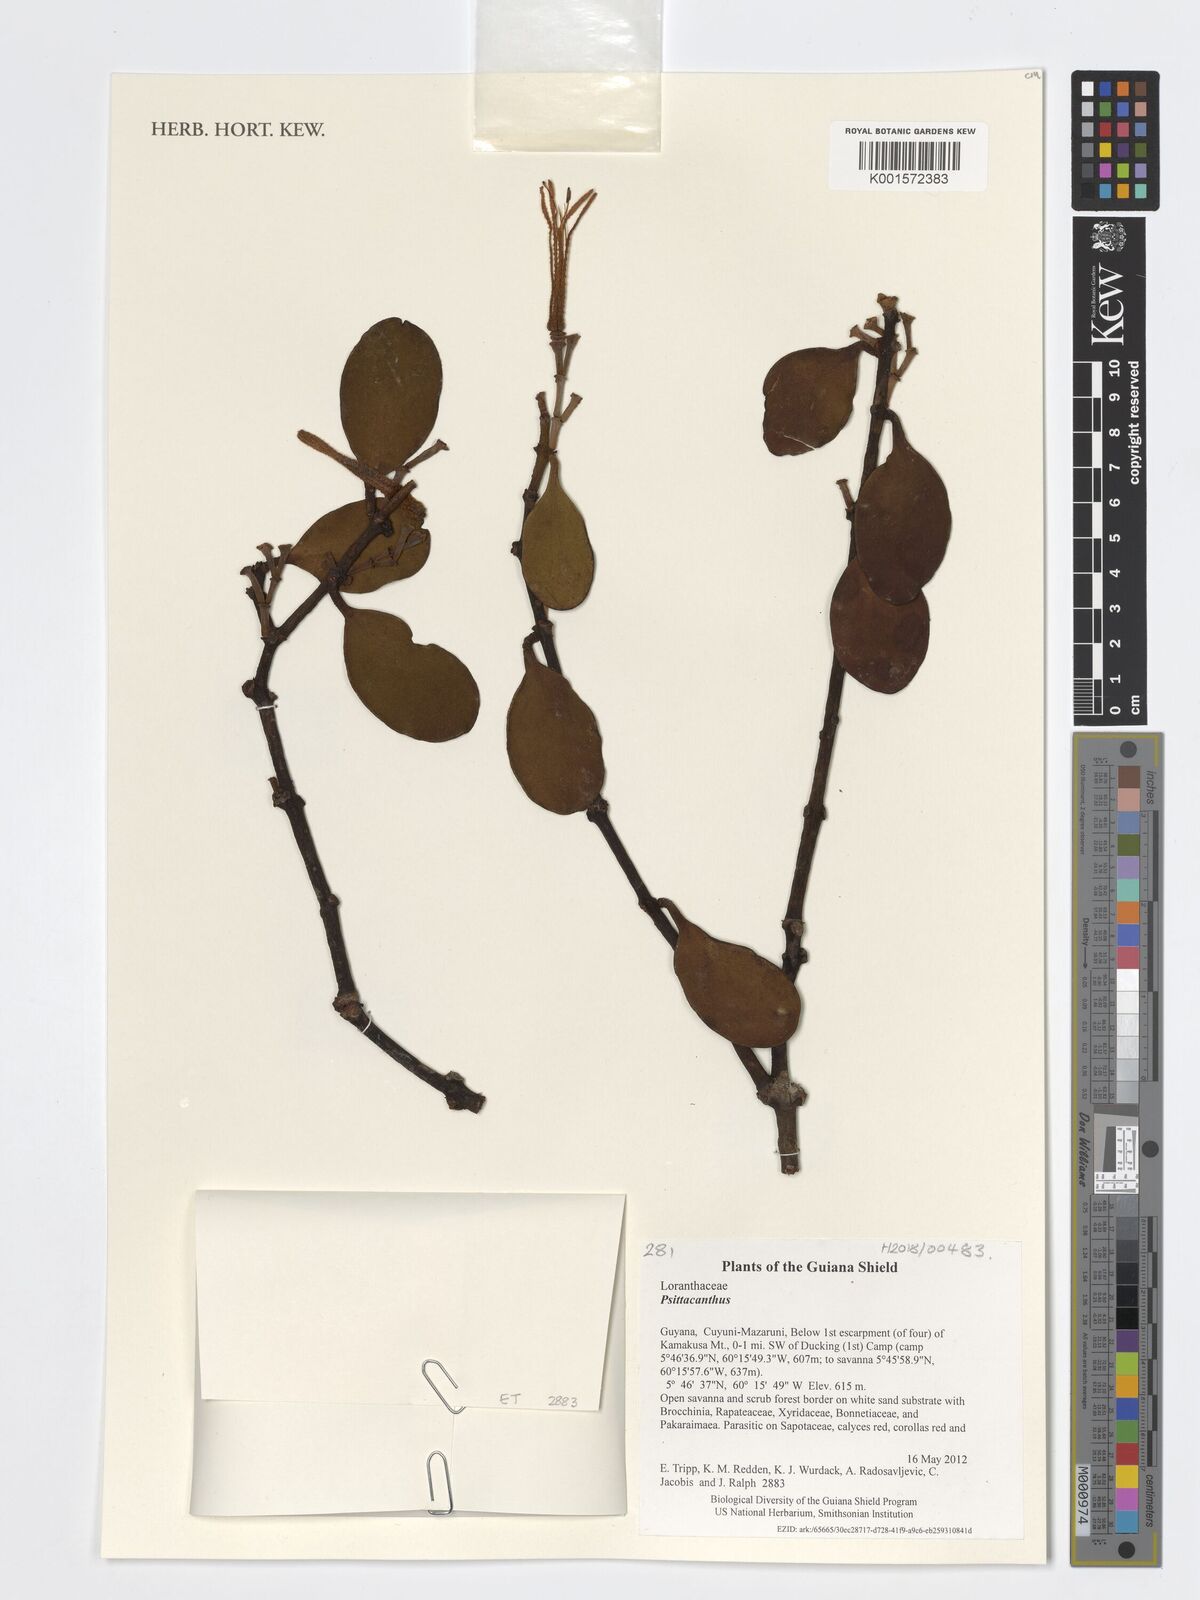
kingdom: Plantae
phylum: Tracheophyta
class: Magnoliopsida
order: Santalales
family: Loranthaceae
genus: Psittacanthus
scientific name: Psittacanthus
